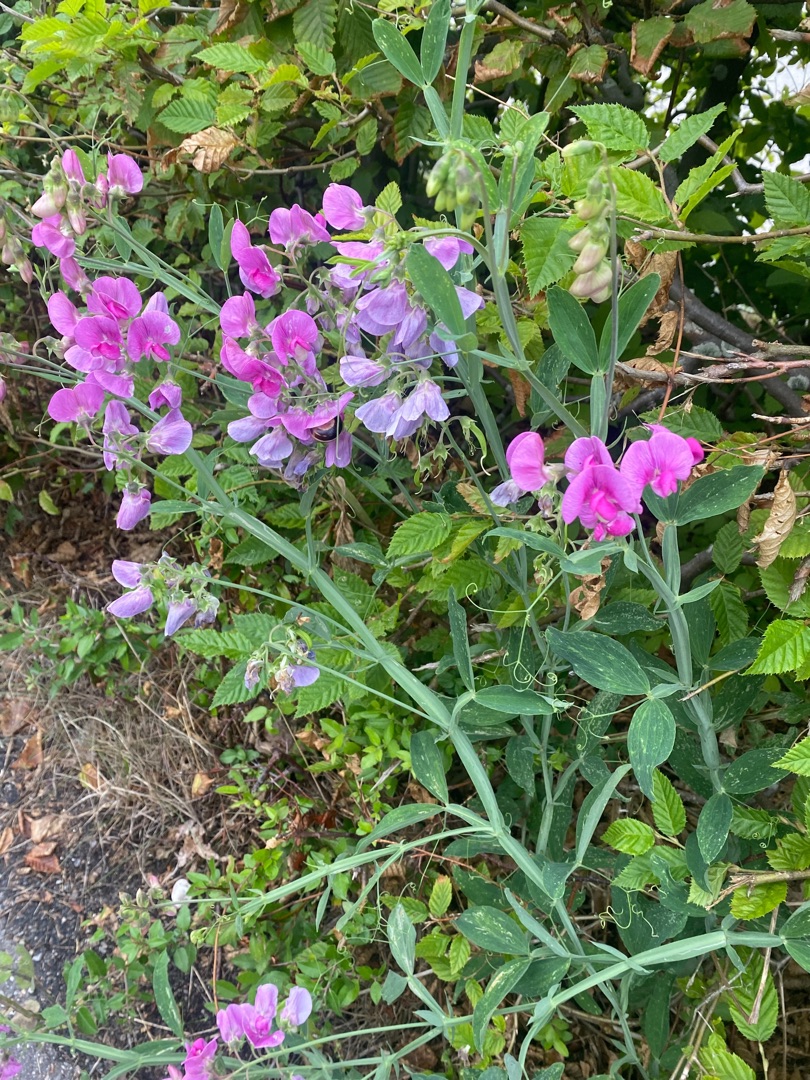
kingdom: Plantae
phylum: Tracheophyta
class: Magnoliopsida
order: Fabales
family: Fabaceae
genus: Lathyrus
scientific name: Lathyrus latifolius
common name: Flerårig ærteblomst
